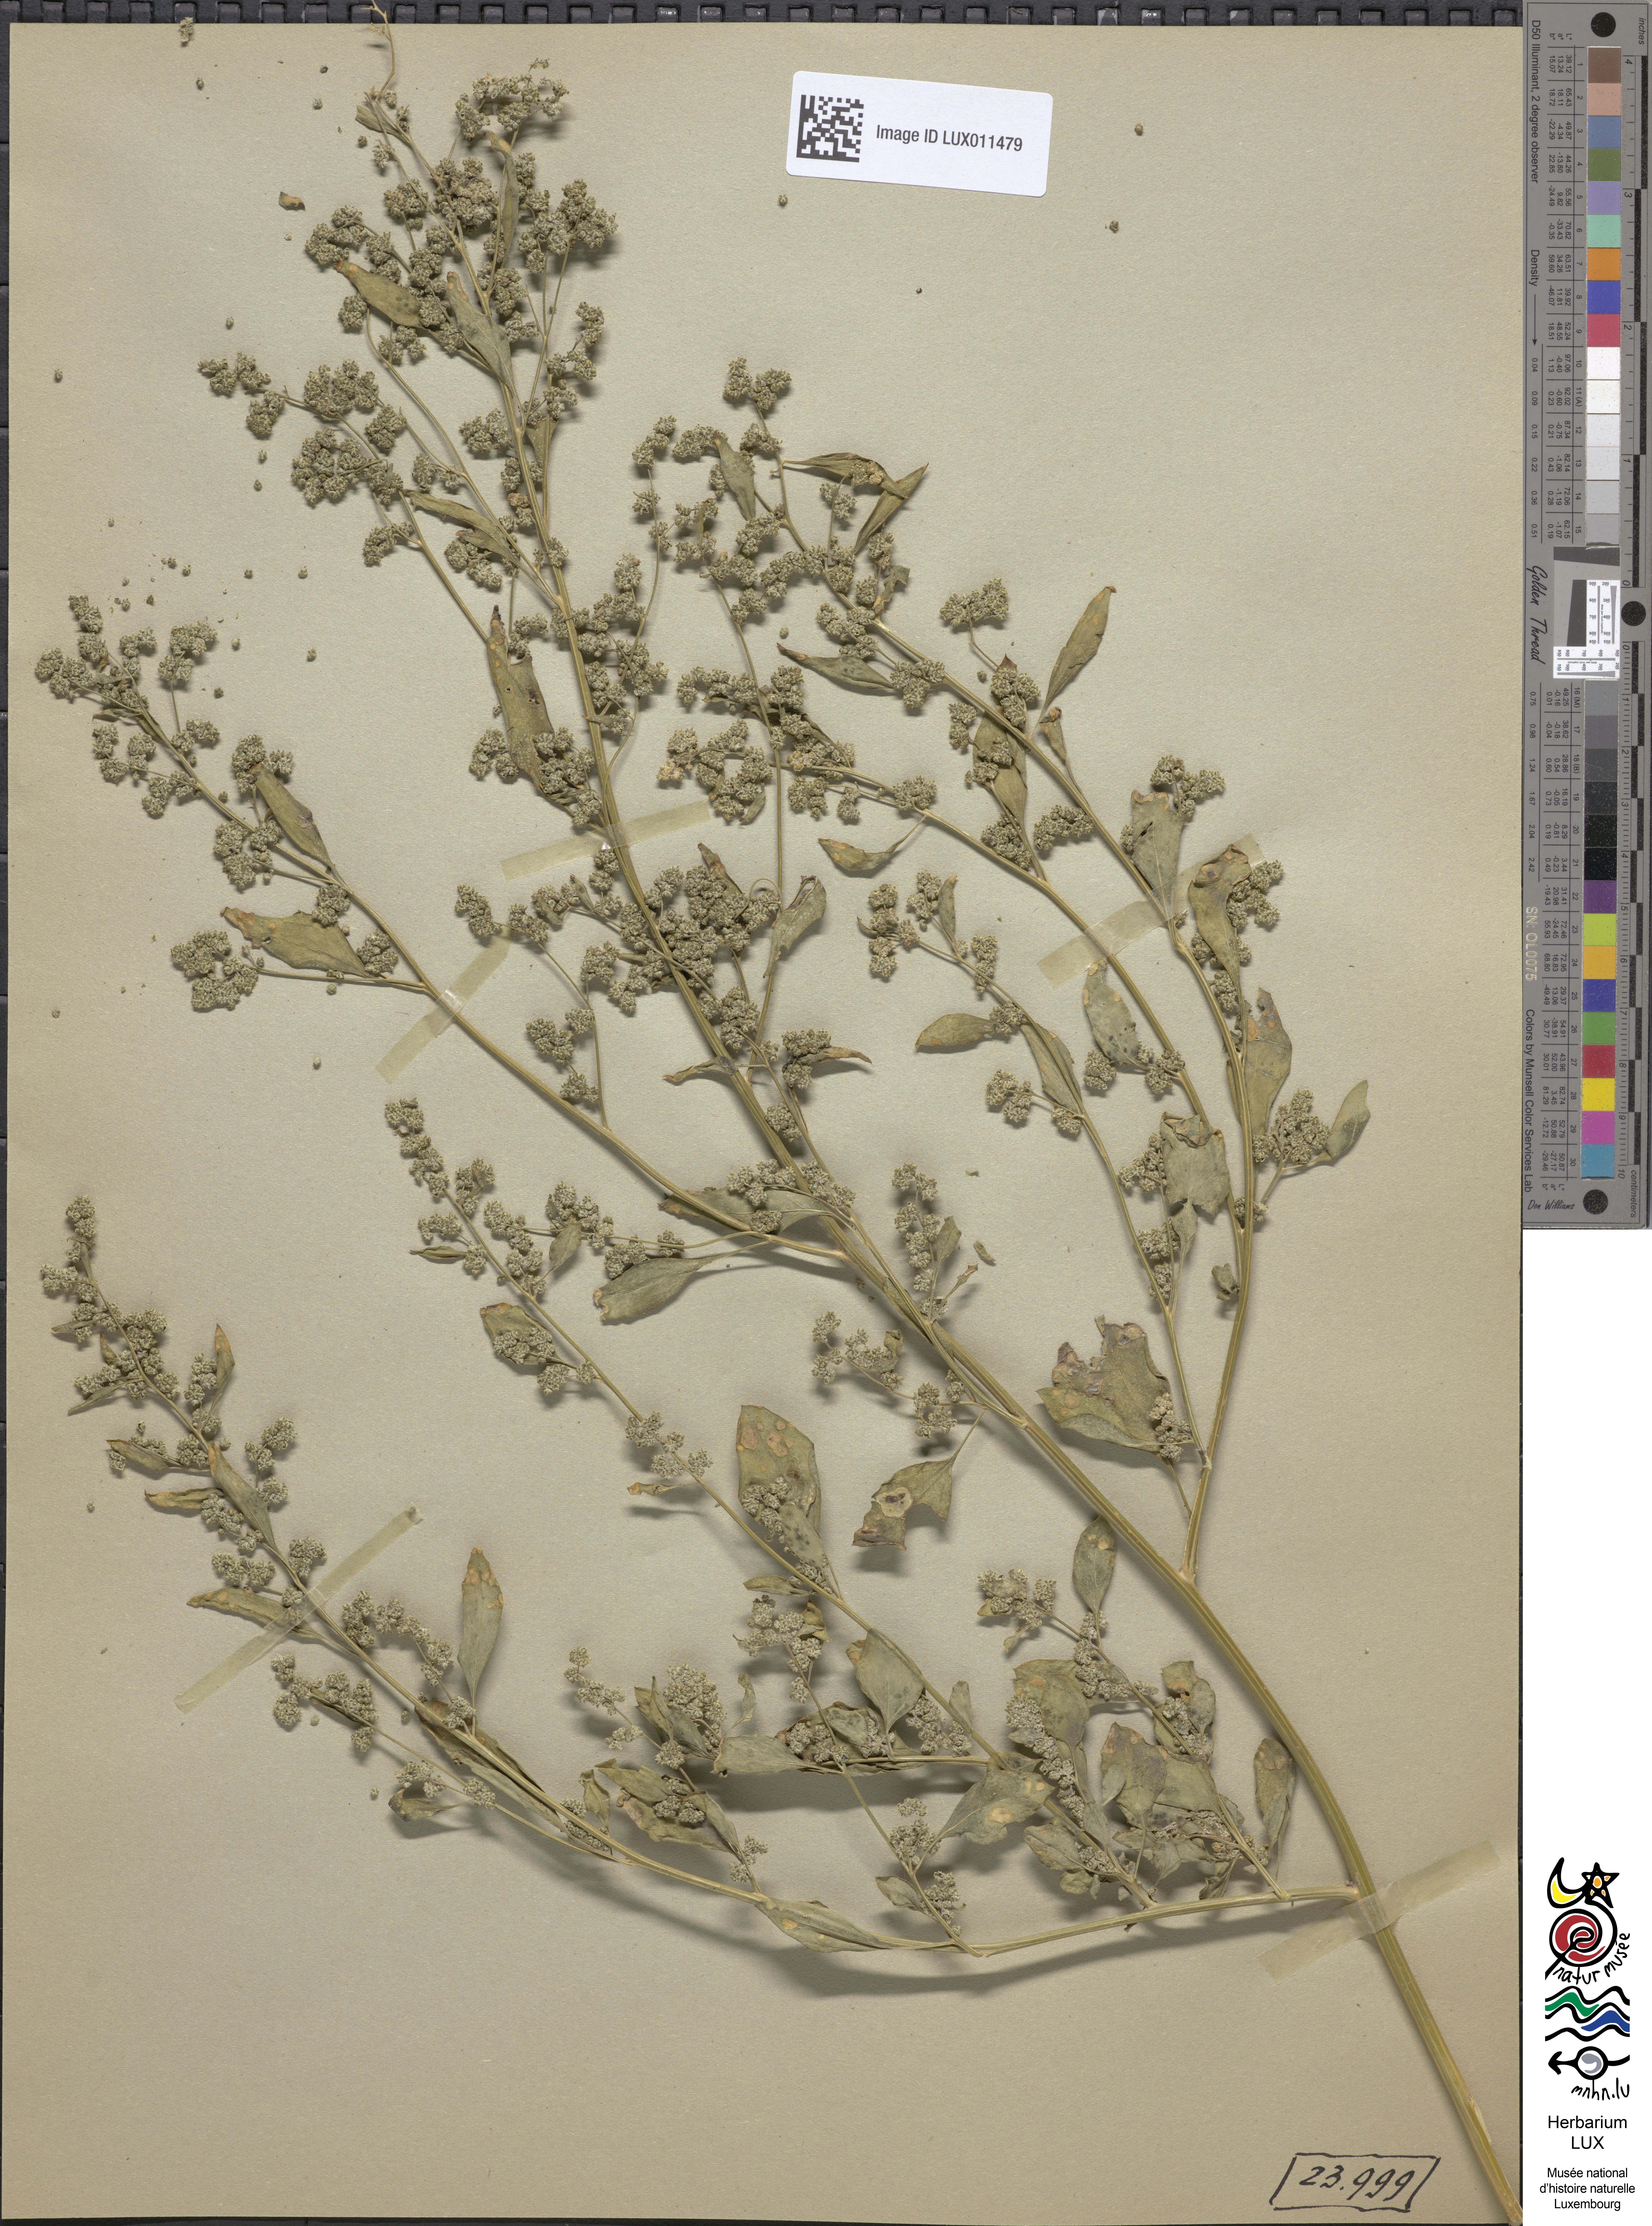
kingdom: Plantae
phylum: Tracheophyta
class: Magnoliopsida
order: Caryophyllales
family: Amaranthaceae
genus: Chenopodium
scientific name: Chenopodium variabile
